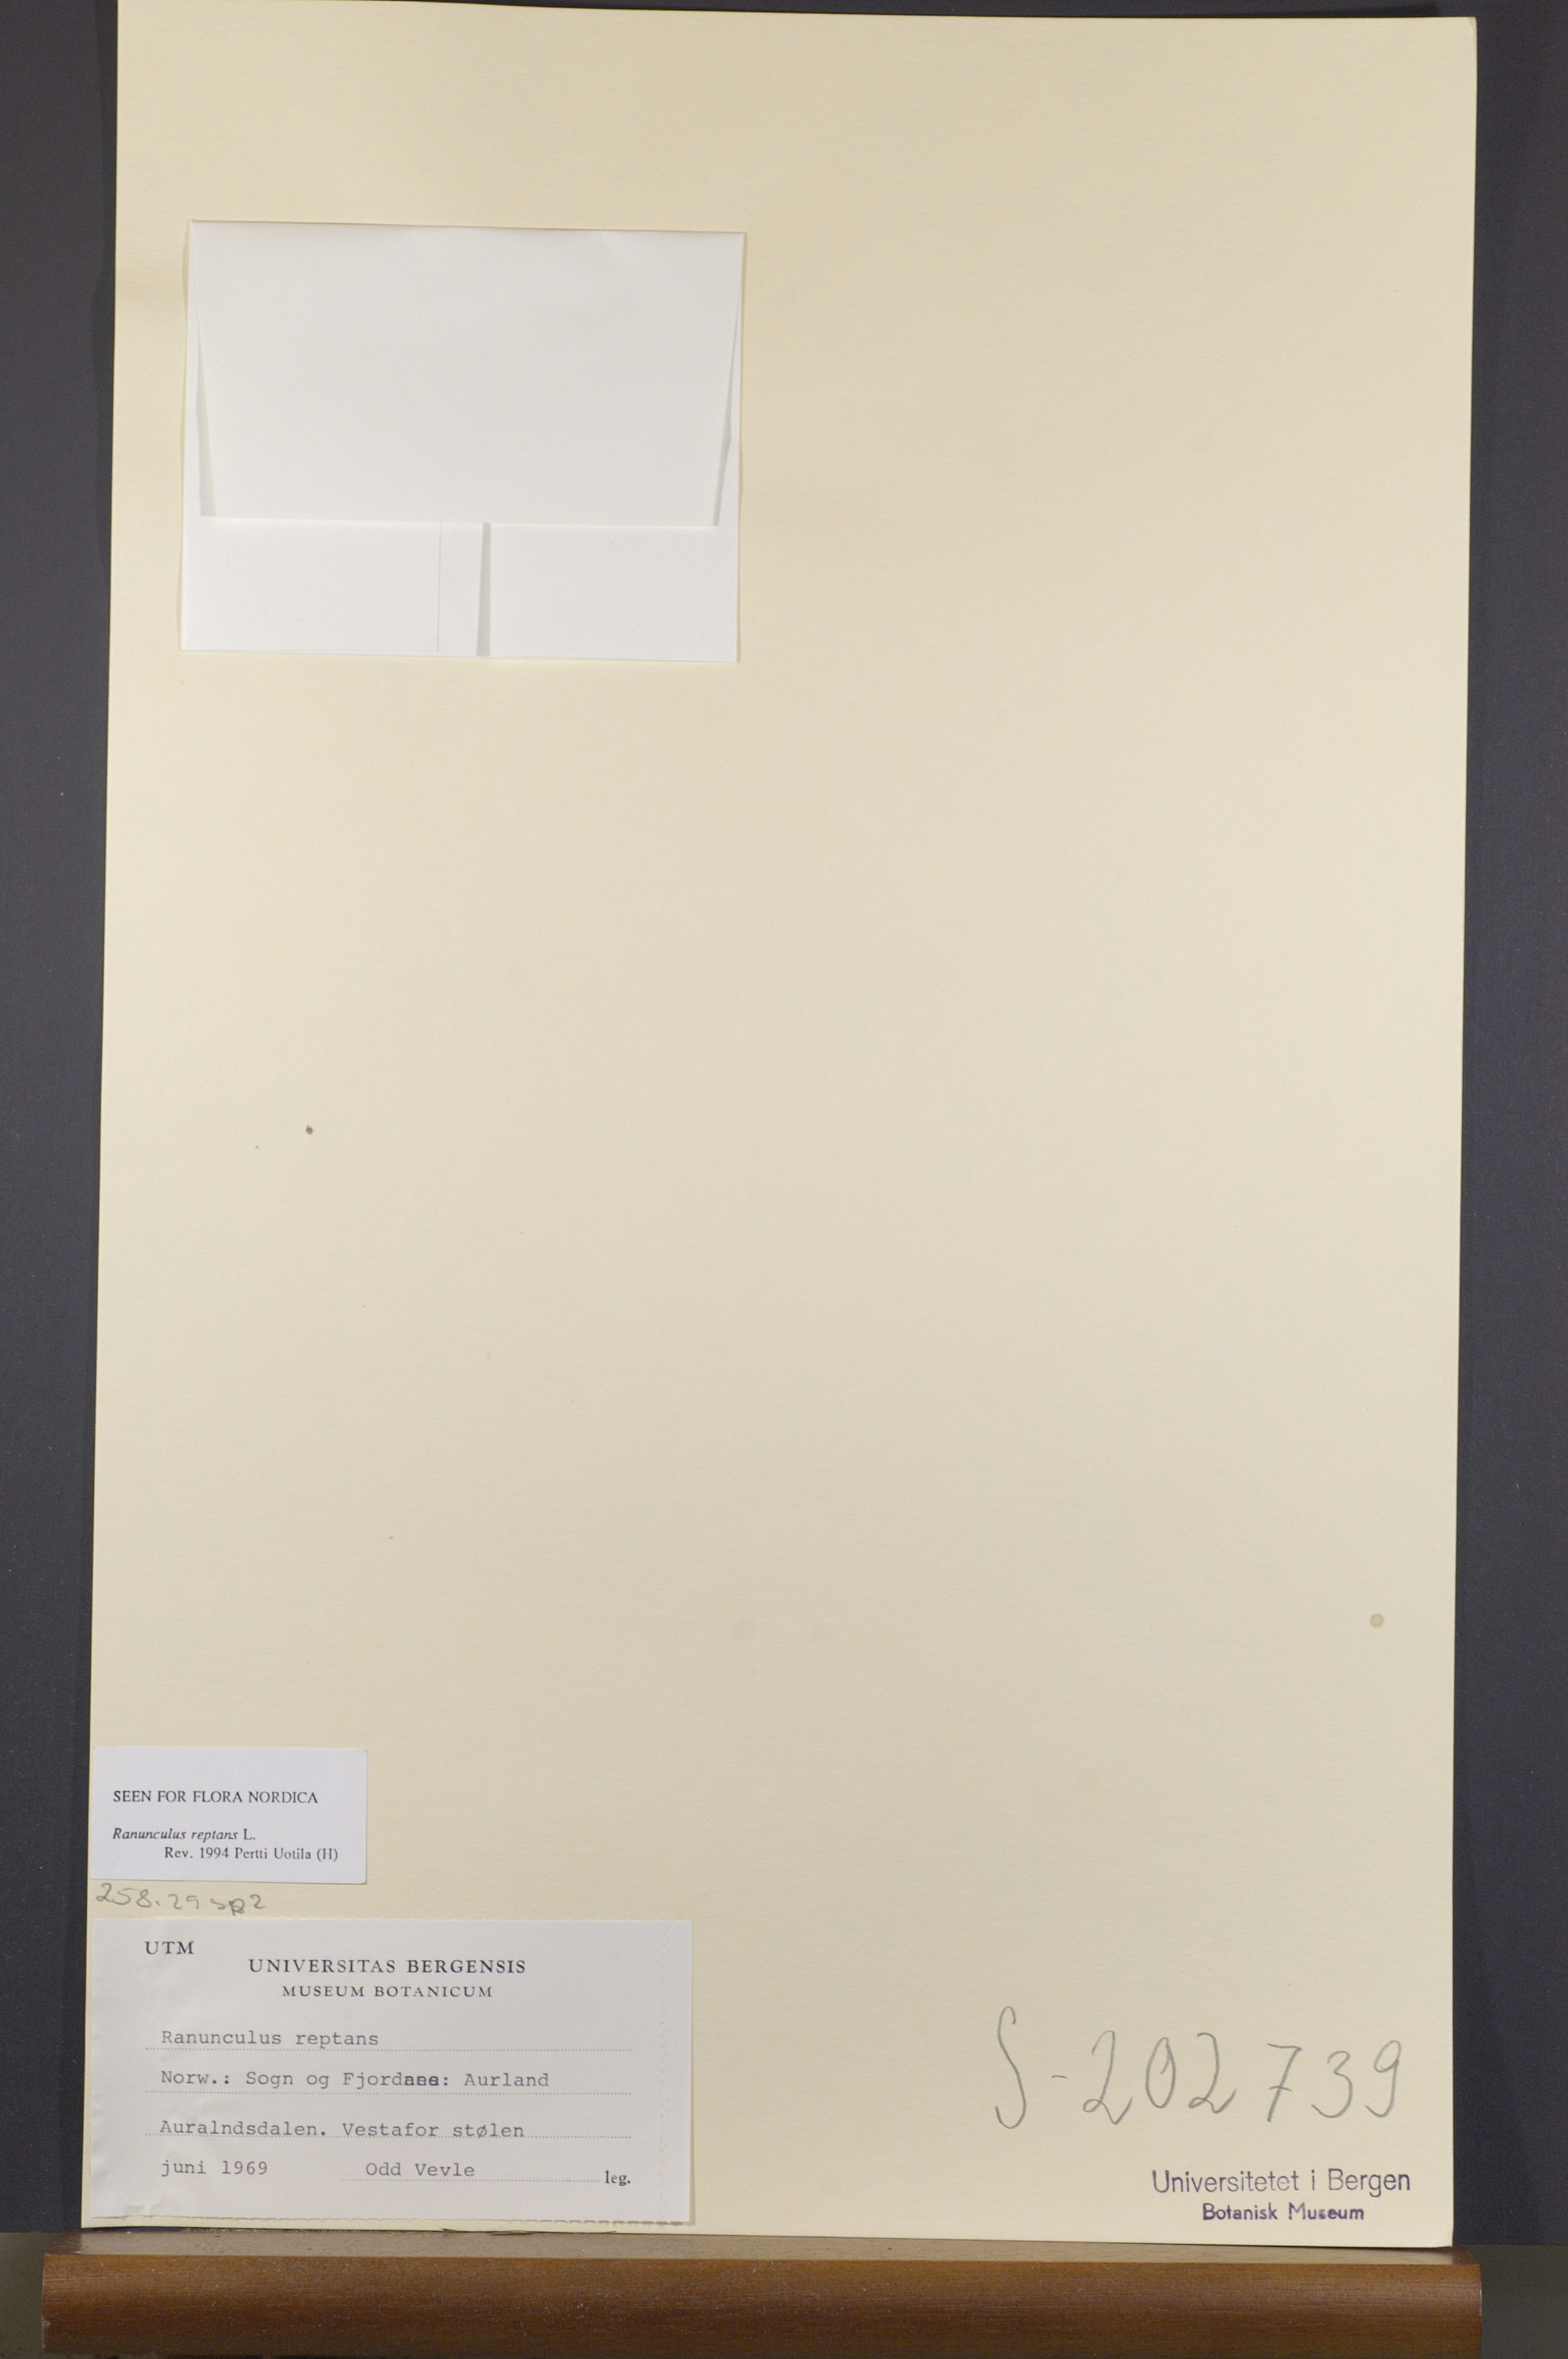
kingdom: Plantae
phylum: Tracheophyta
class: Magnoliopsida
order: Ranunculales
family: Ranunculaceae
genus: Ranunculus
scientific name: Ranunculus reptans
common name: Creeping spearwort
